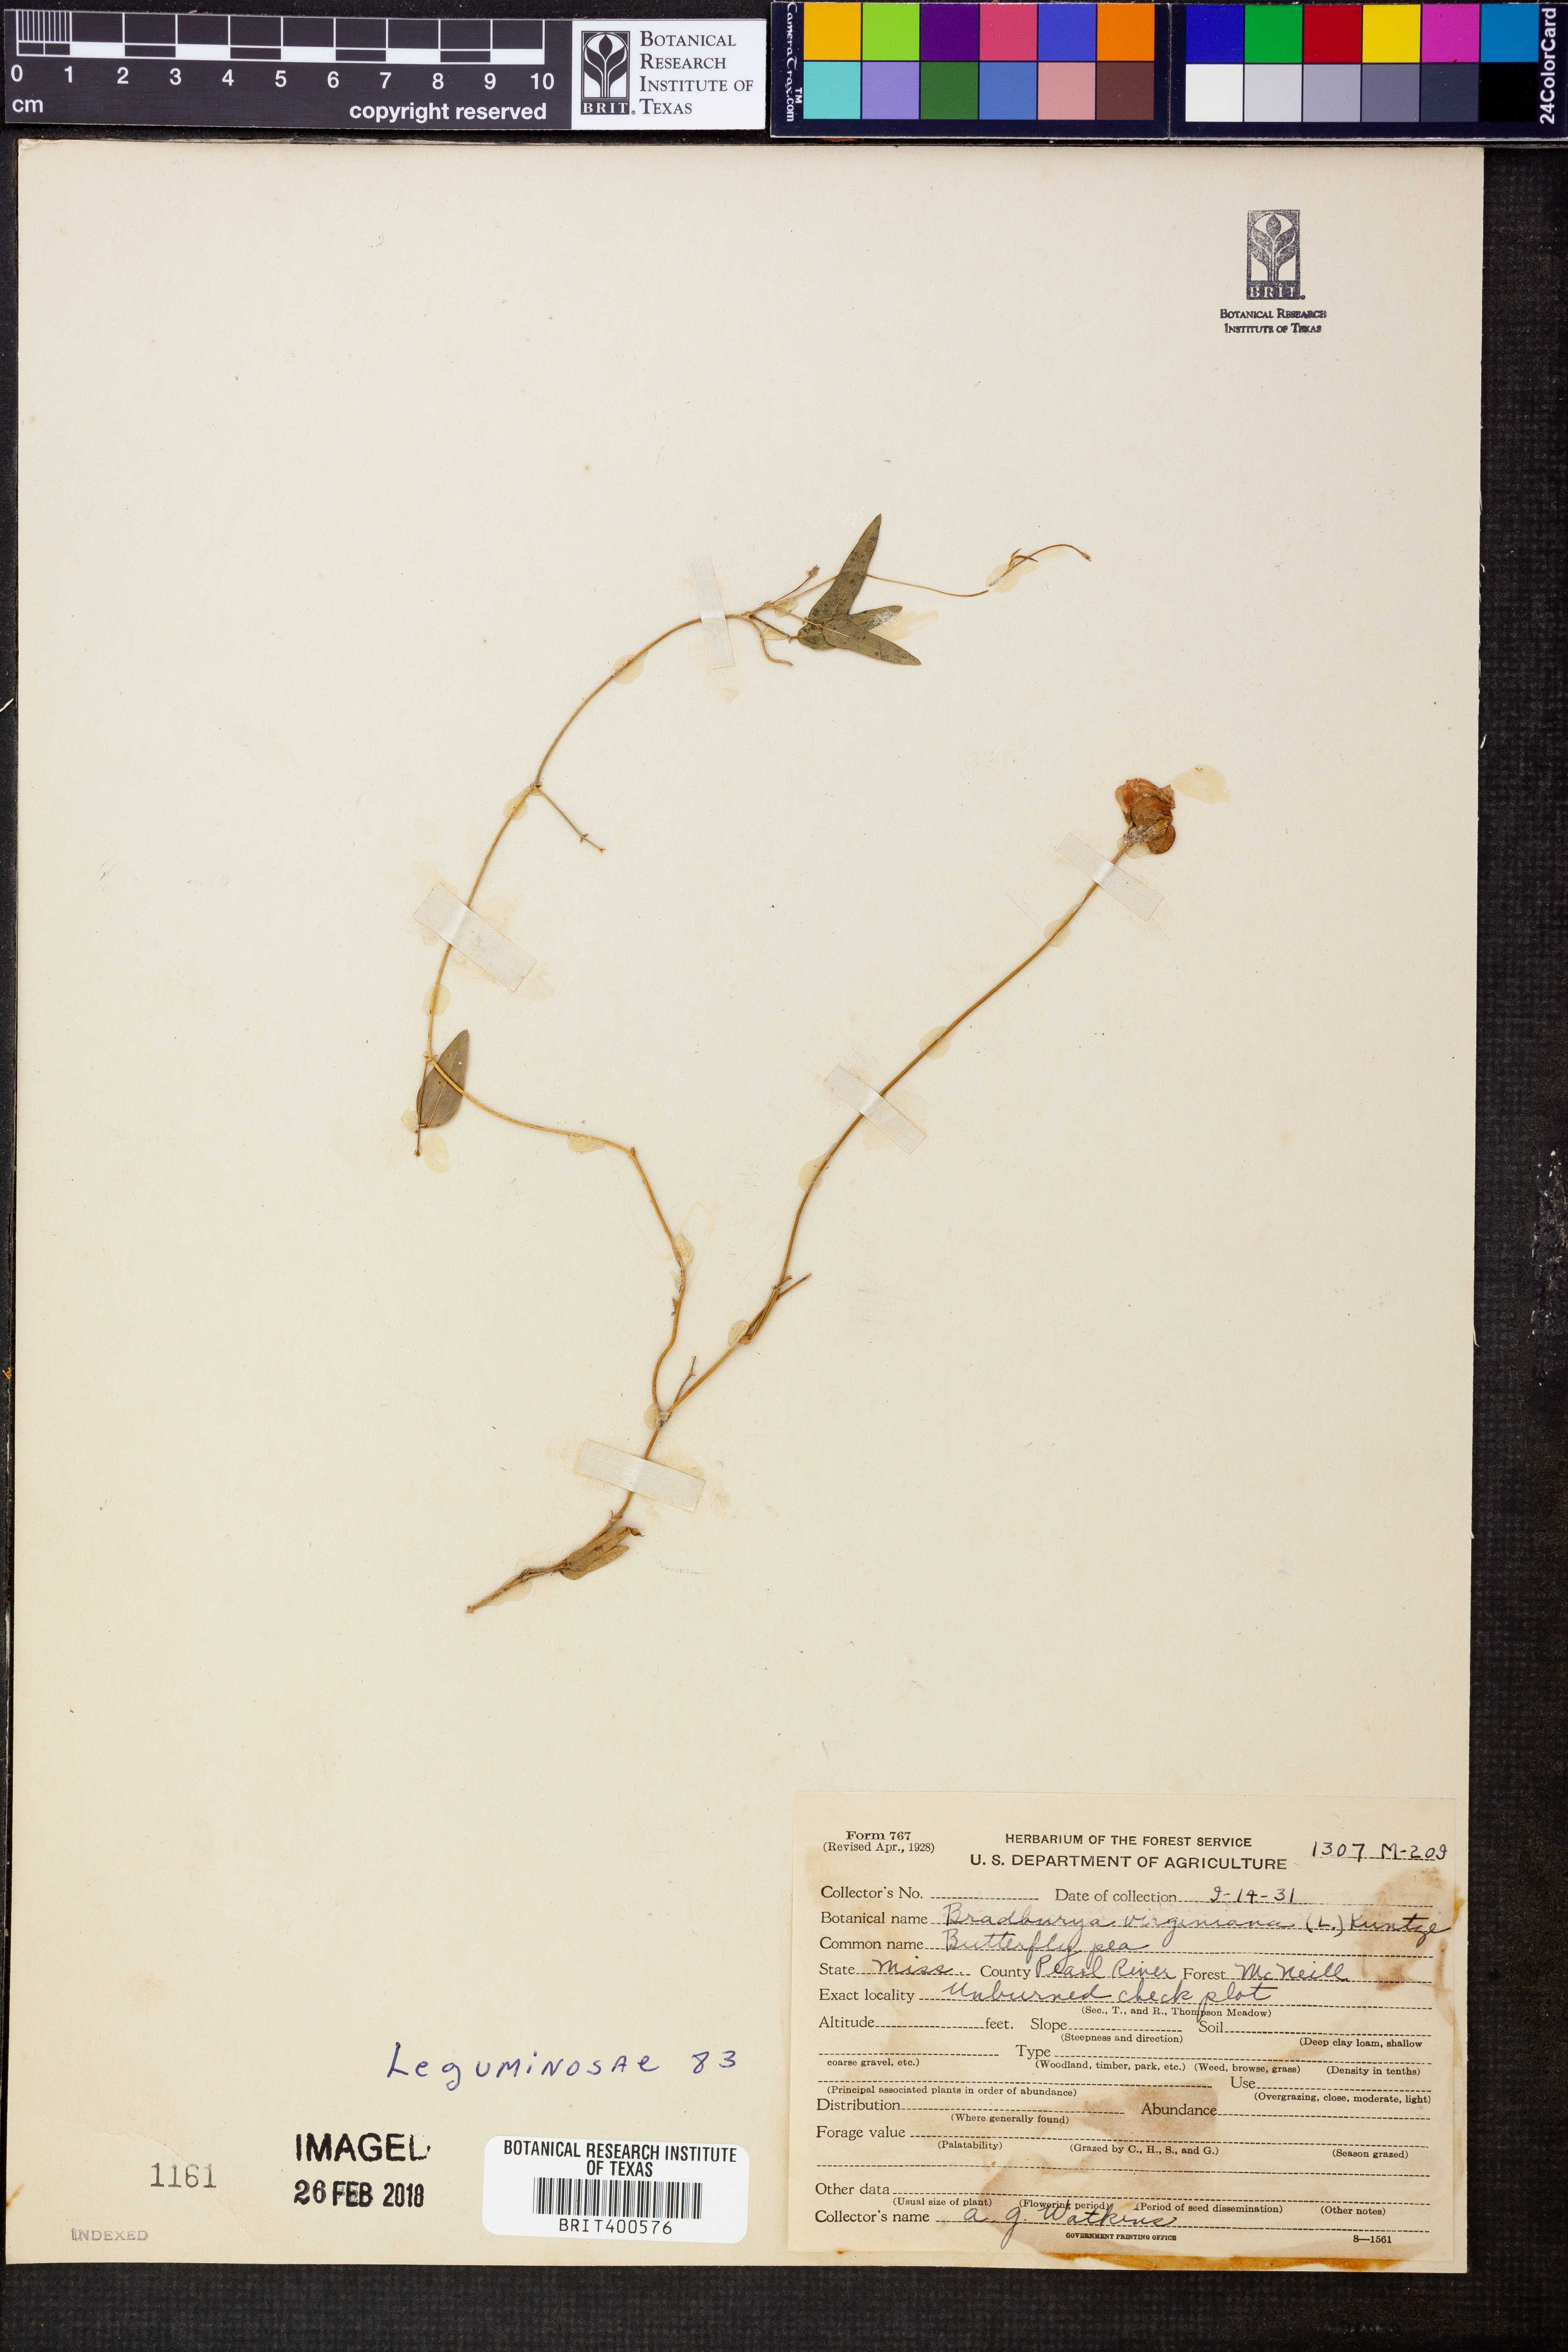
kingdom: Plantae
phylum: Tracheophyta
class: Magnoliopsida
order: Fabales
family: Fabaceae
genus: Centrosema
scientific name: Centrosema virginianum
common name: Butterfly-pea
